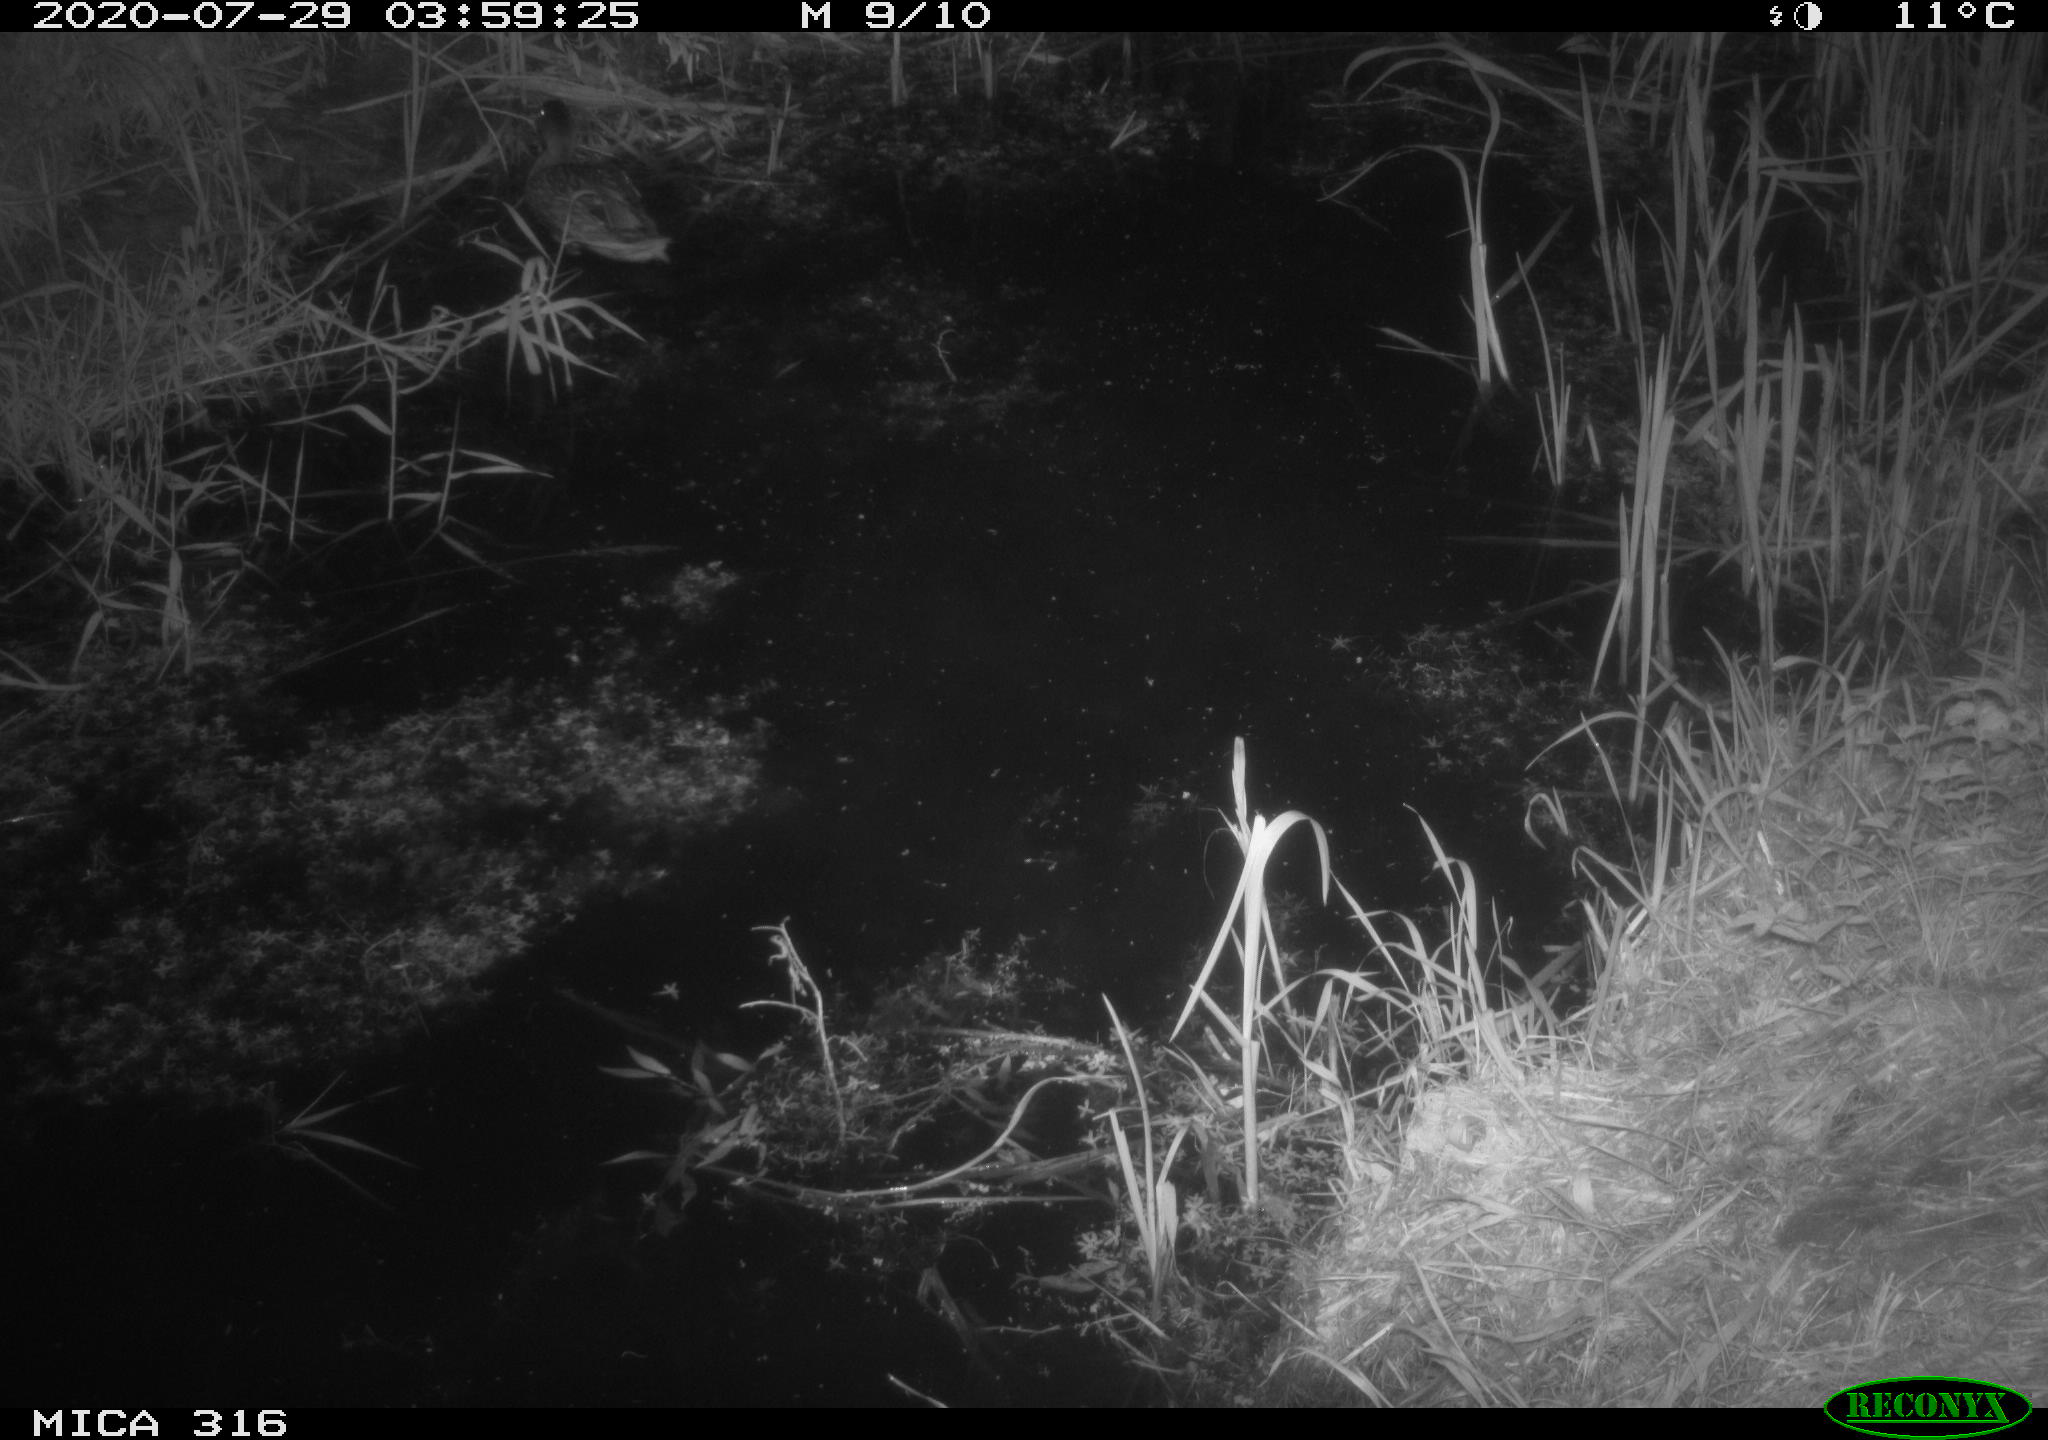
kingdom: Animalia
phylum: Chordata
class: Aves
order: Anseriformes
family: Anatidae
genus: Anas
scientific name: Anas platyrhynchos
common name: Mallard
